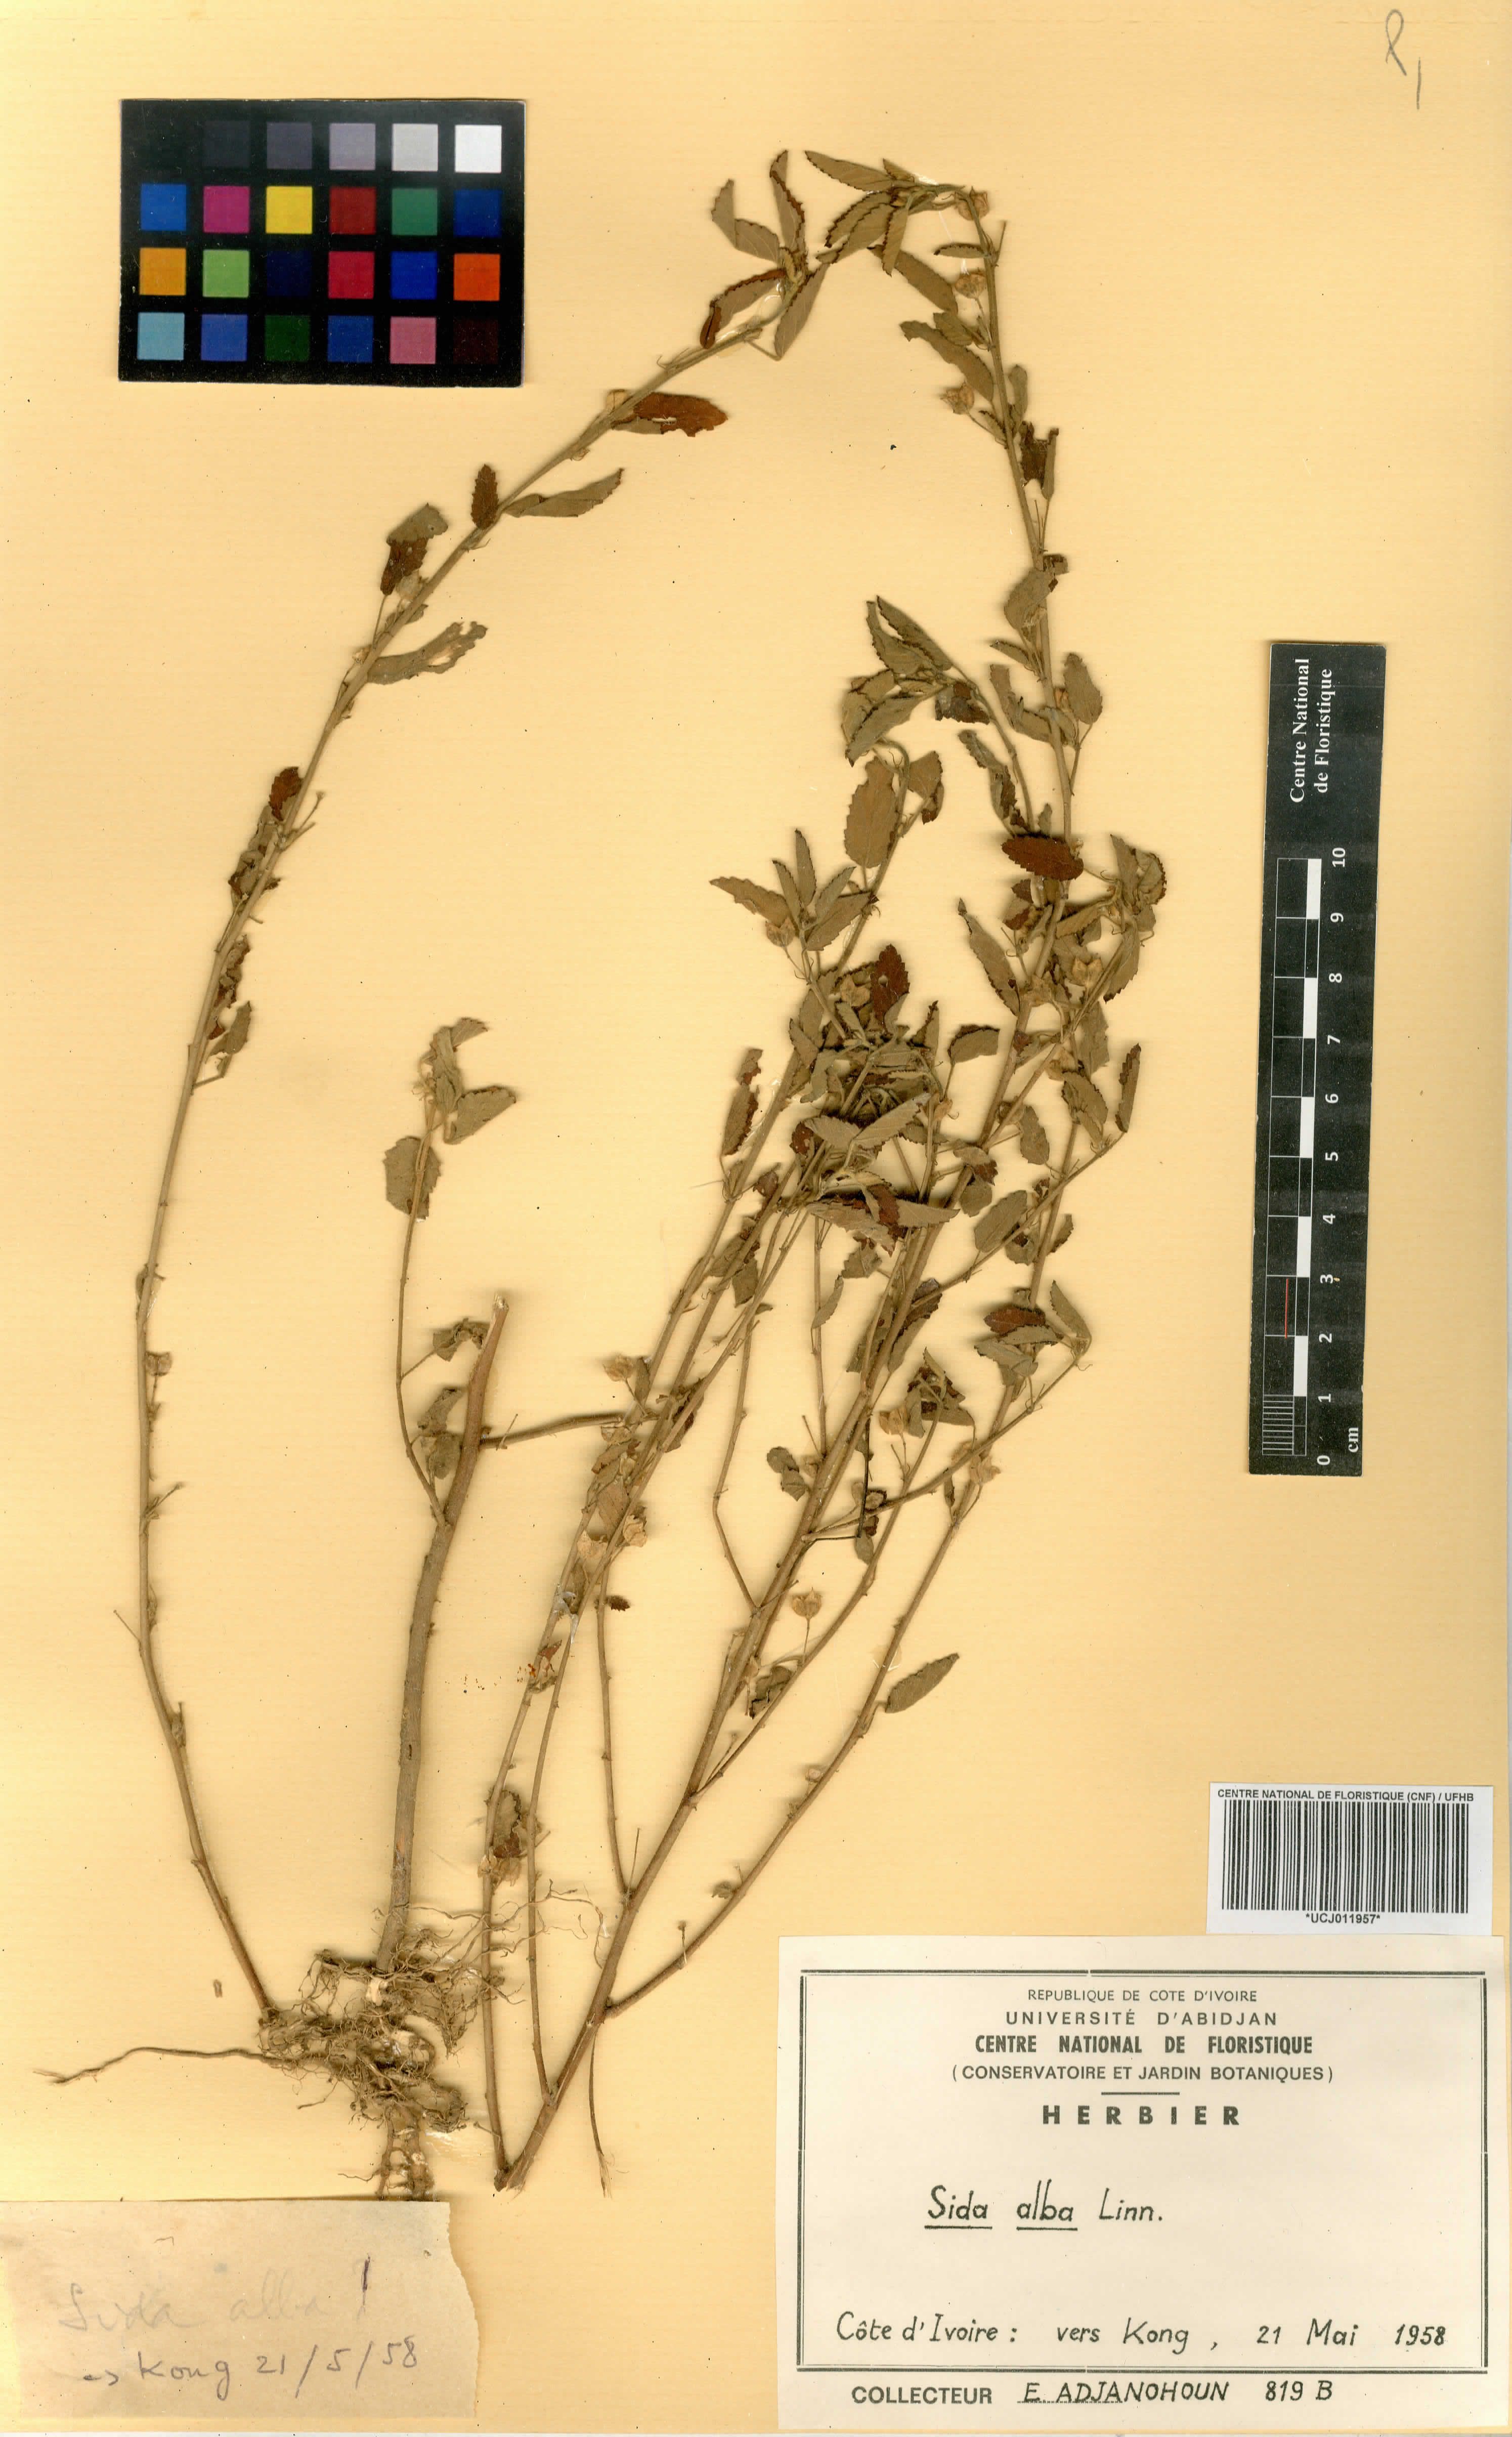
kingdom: Plantae
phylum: Tracheophyta
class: Magnoliopsida
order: Malvales
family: Malvaceae
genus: Sida
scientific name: Sida alba
